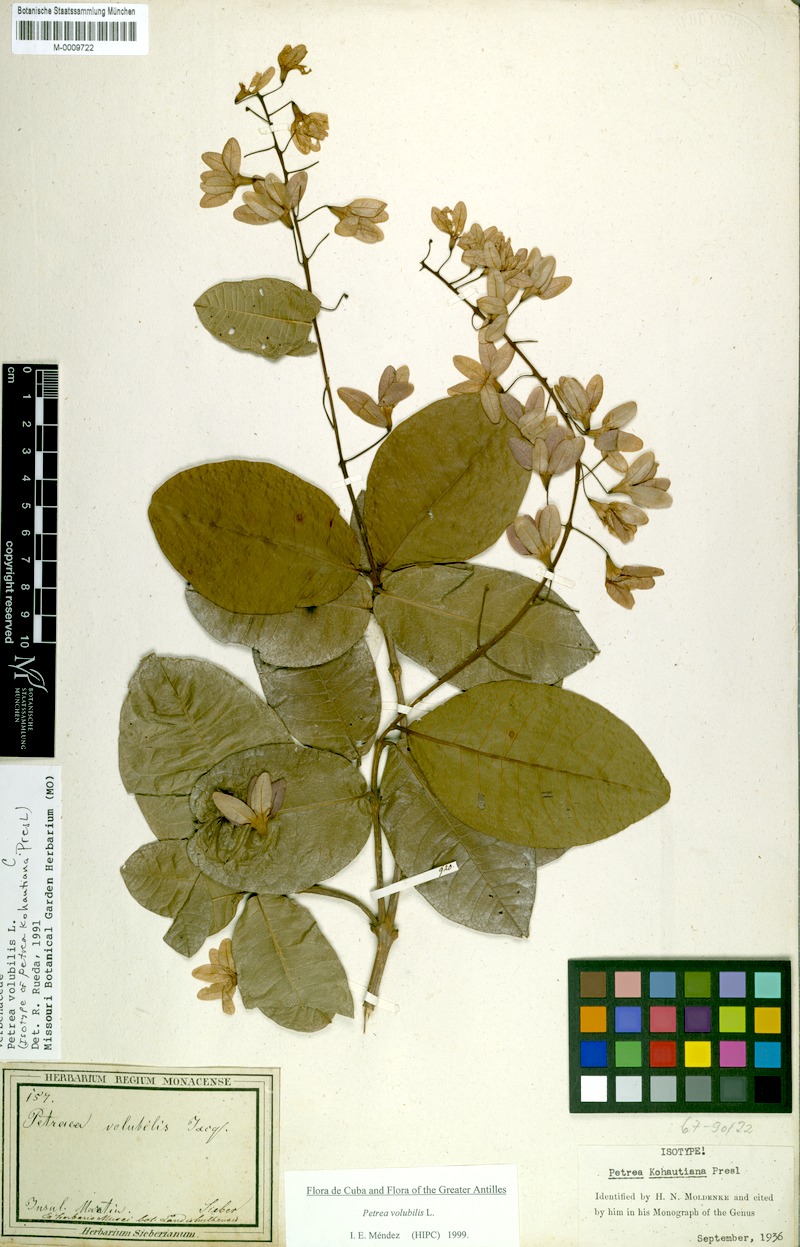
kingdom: Plantae
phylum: Tracheophyta
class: Magnoliopsida
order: Lamiales
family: Verbenaceae
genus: Petrea
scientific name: Petrea volubilis
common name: Queen's-wreath
